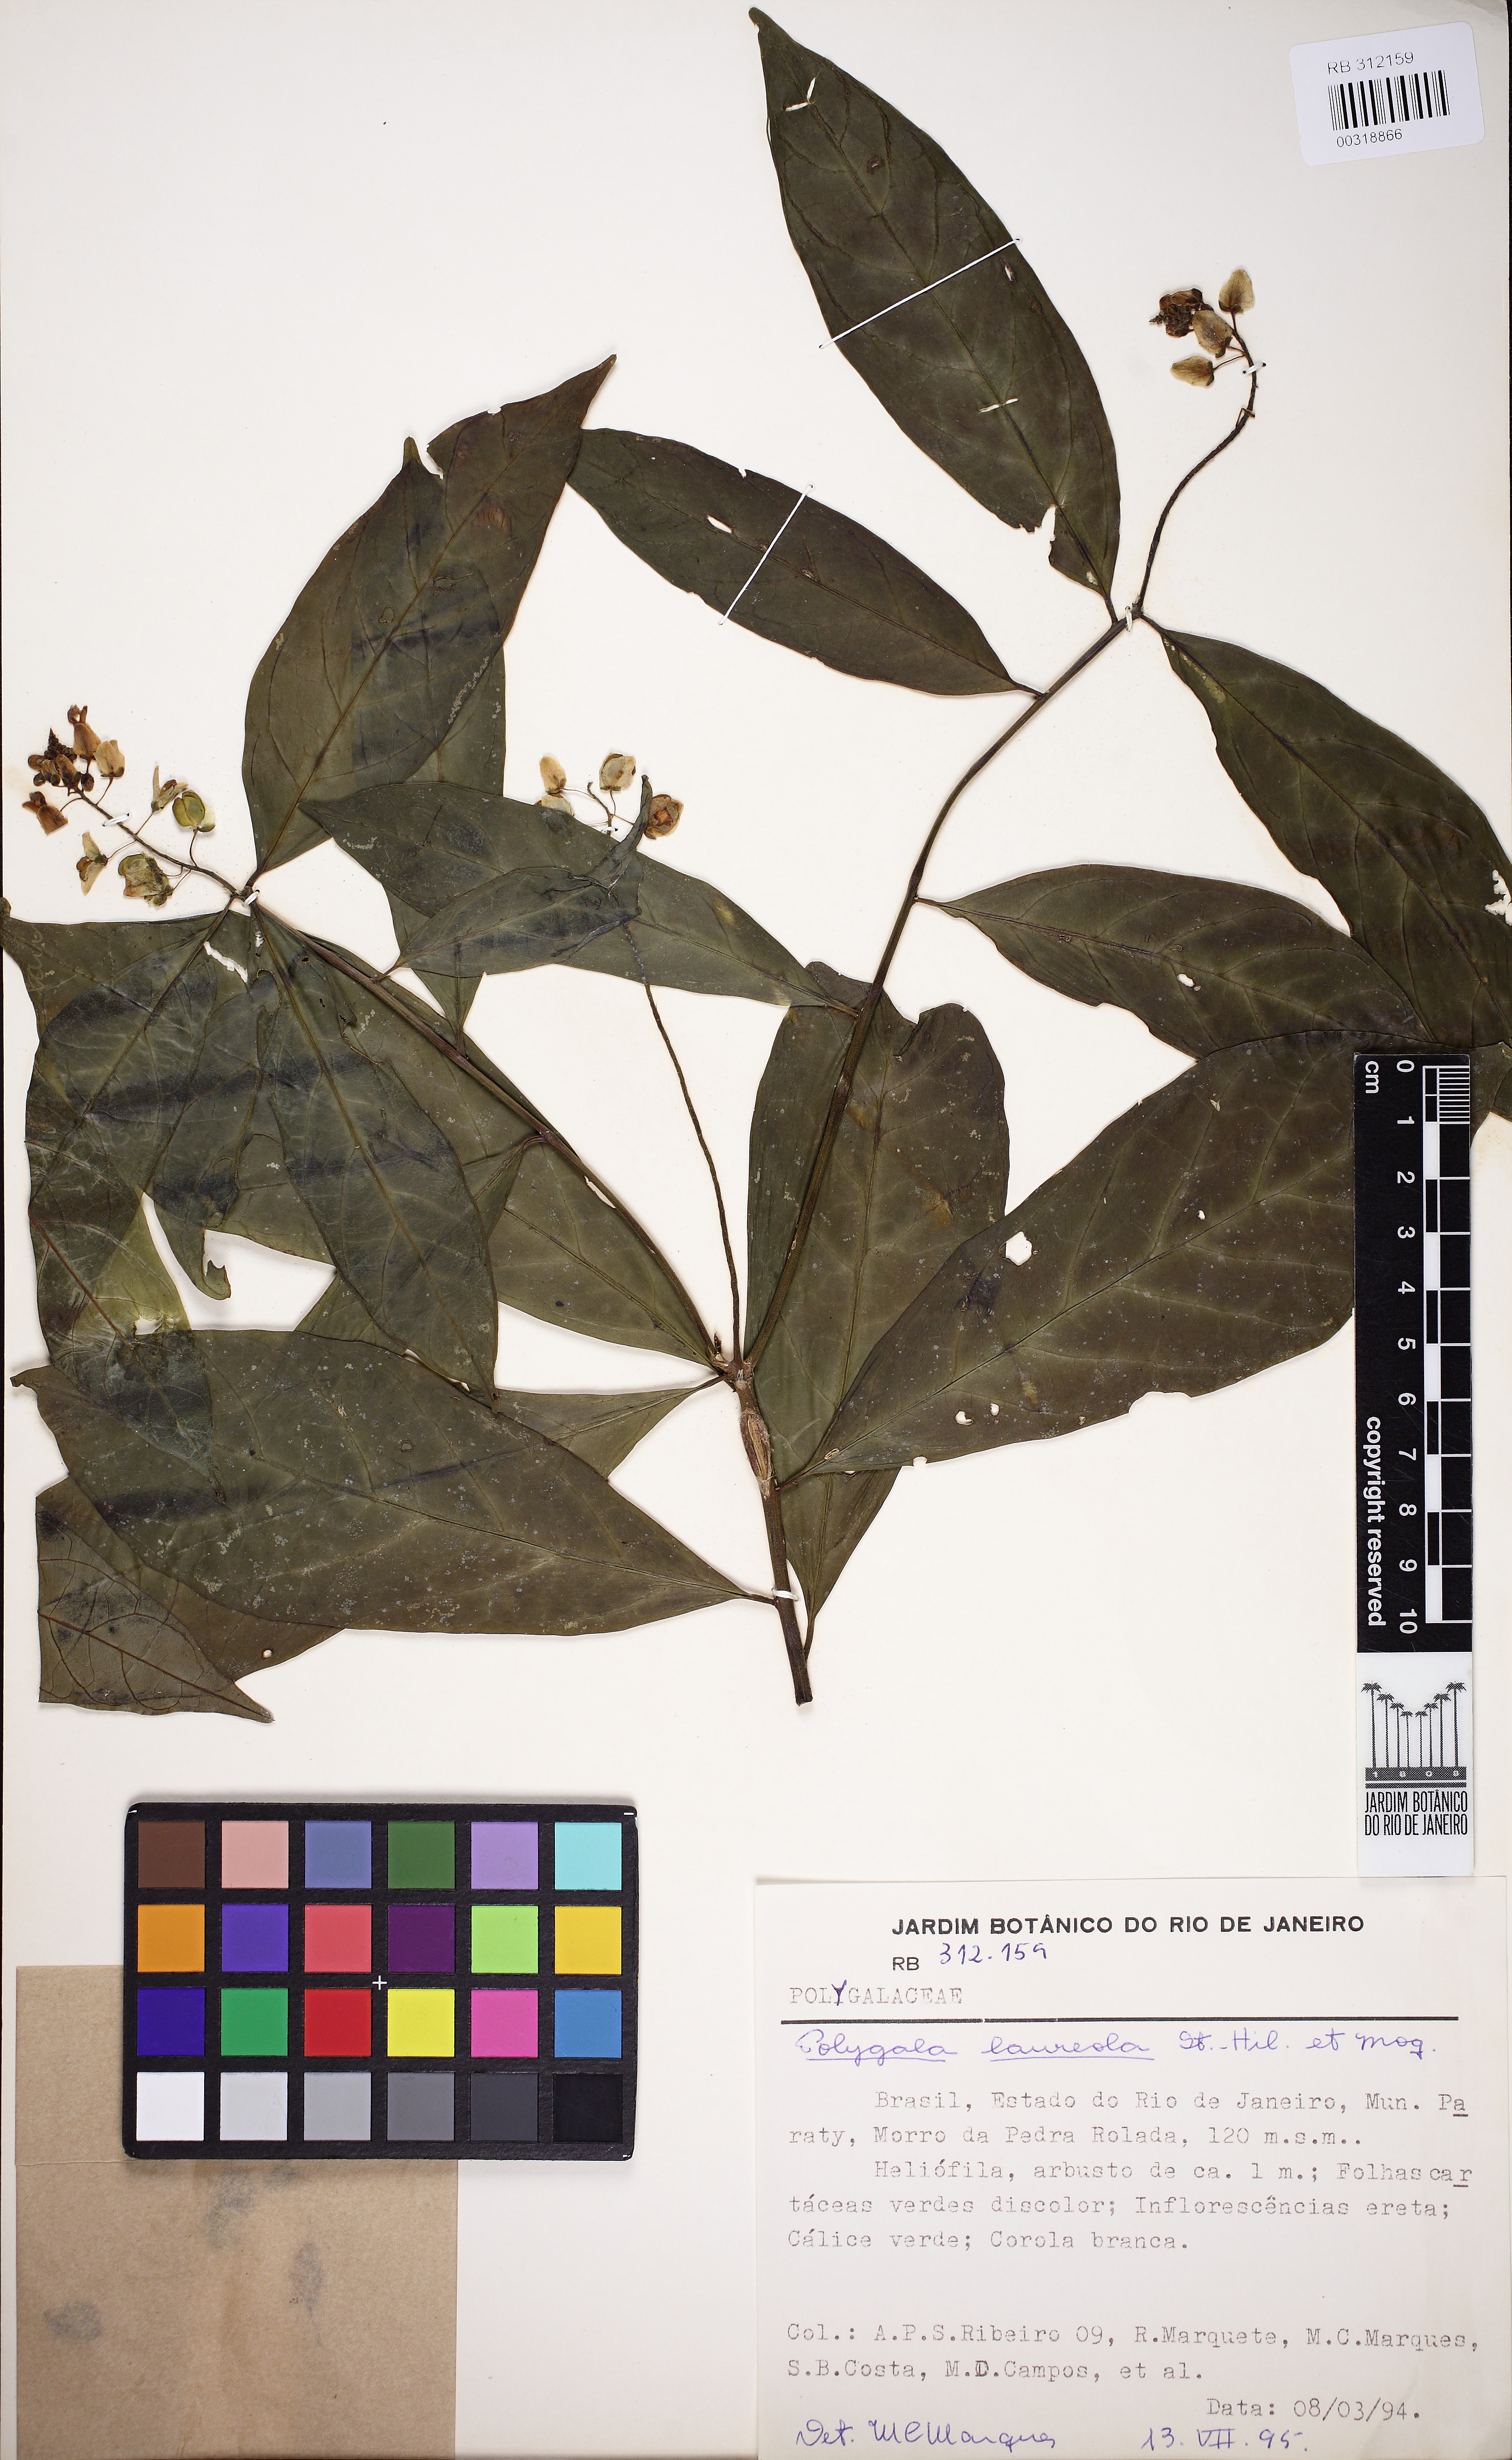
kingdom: Plantae
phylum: Tracheophyta
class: Magnoliopsida
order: Fabales
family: Polygalaceae
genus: Caamembeca
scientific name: Caamembeca salicifolia
